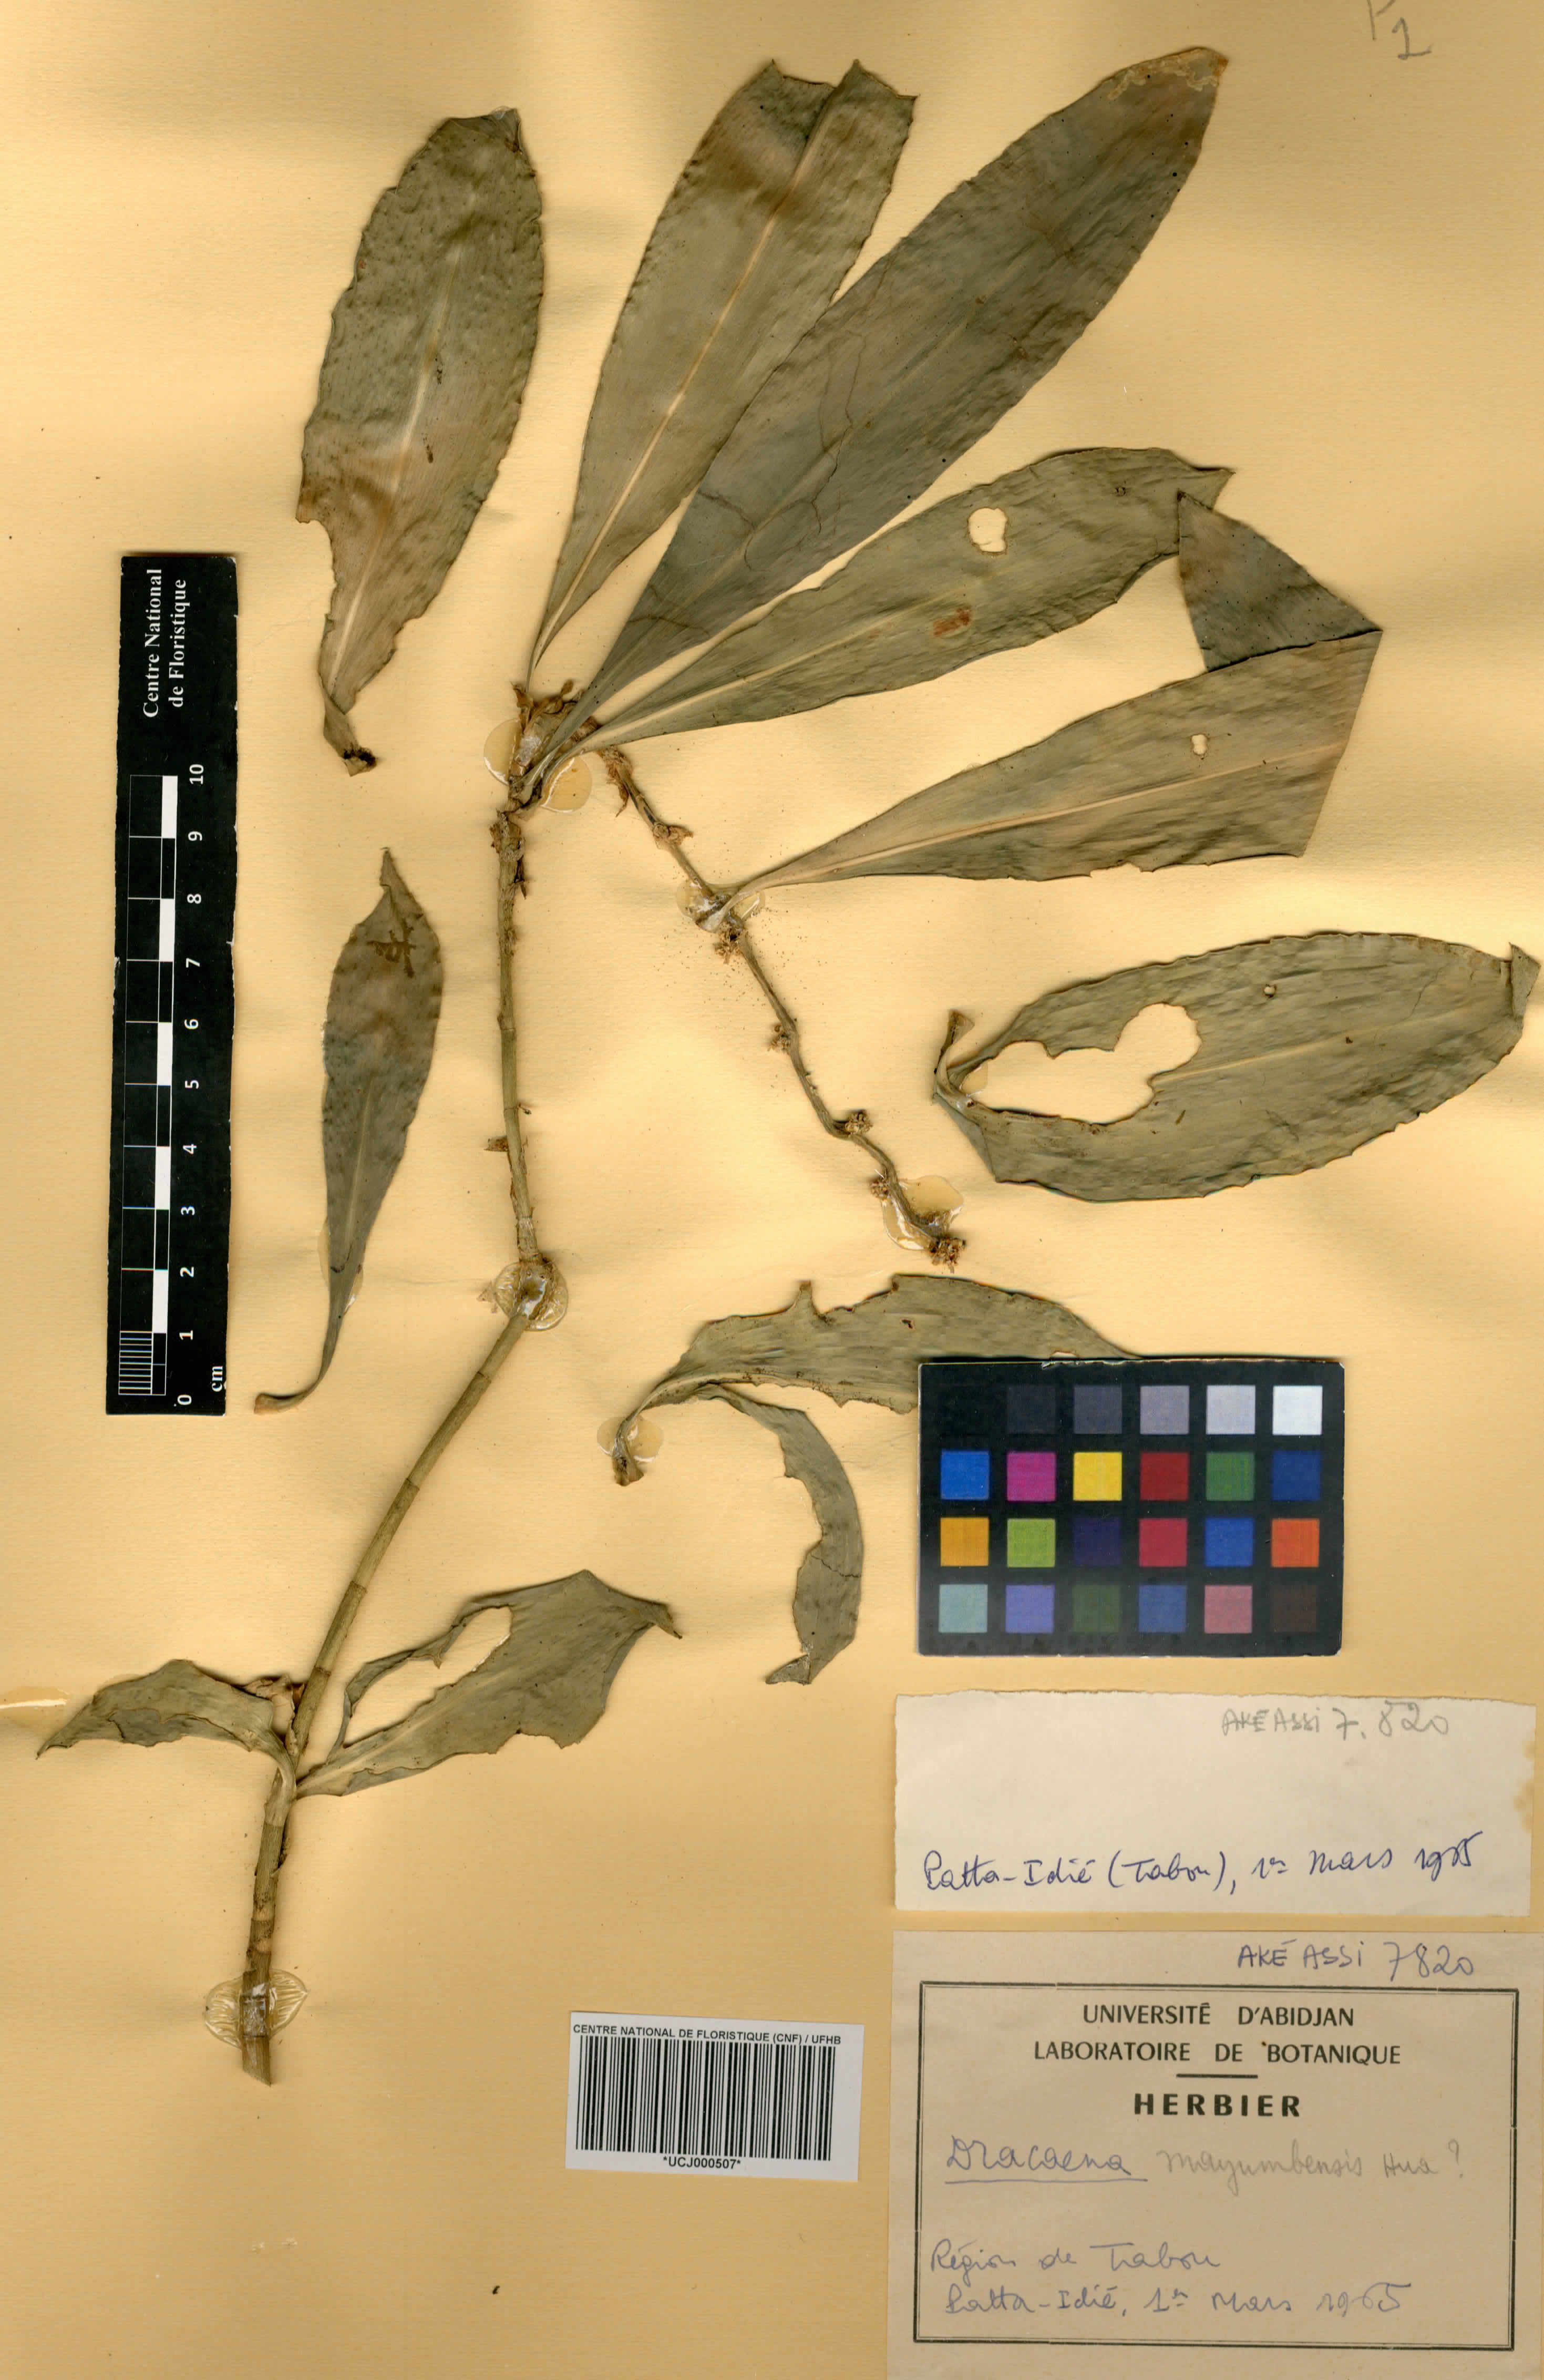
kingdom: Plantae
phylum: Tracheophyta
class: Liliopsida
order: Asparagales
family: Asparagaceae
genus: Dracaena
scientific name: Dracaena camerooniana
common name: Dragon tree
